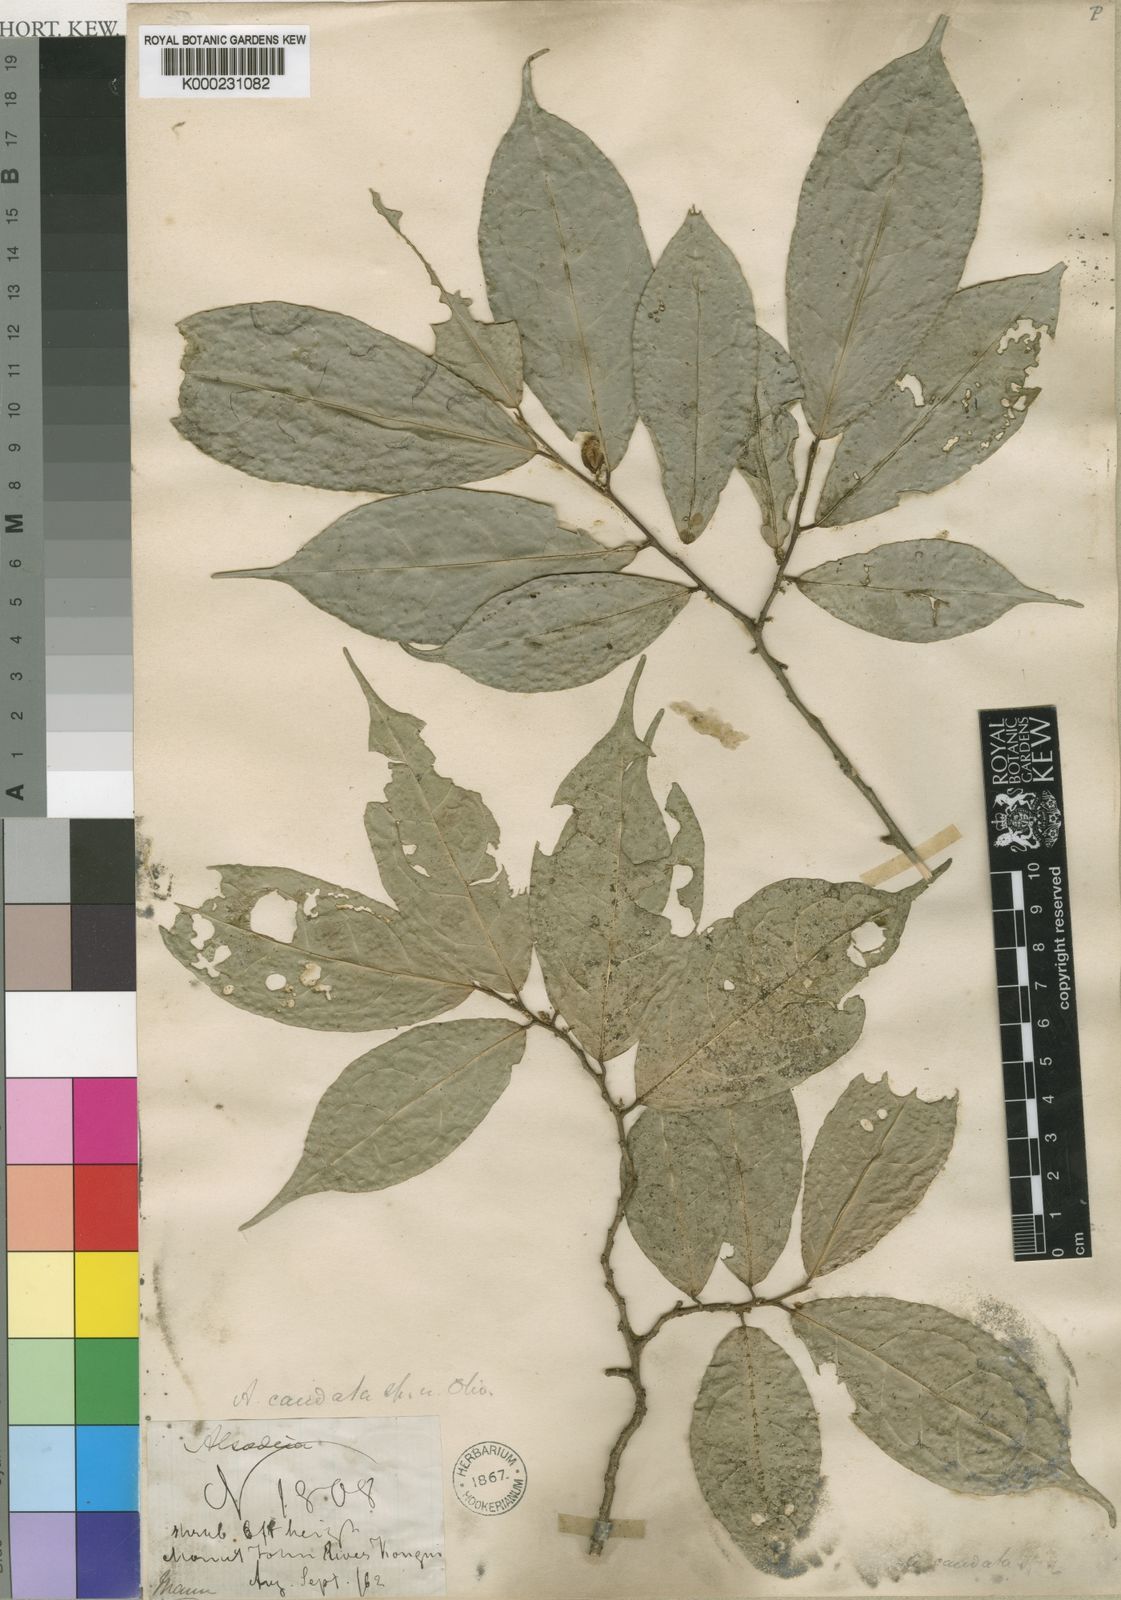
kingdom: Plantae
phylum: Tracheophyta
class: Magnoliopsida
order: Malpighiales
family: Violaceae
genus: Rinorea
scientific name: Rinorea caudata
